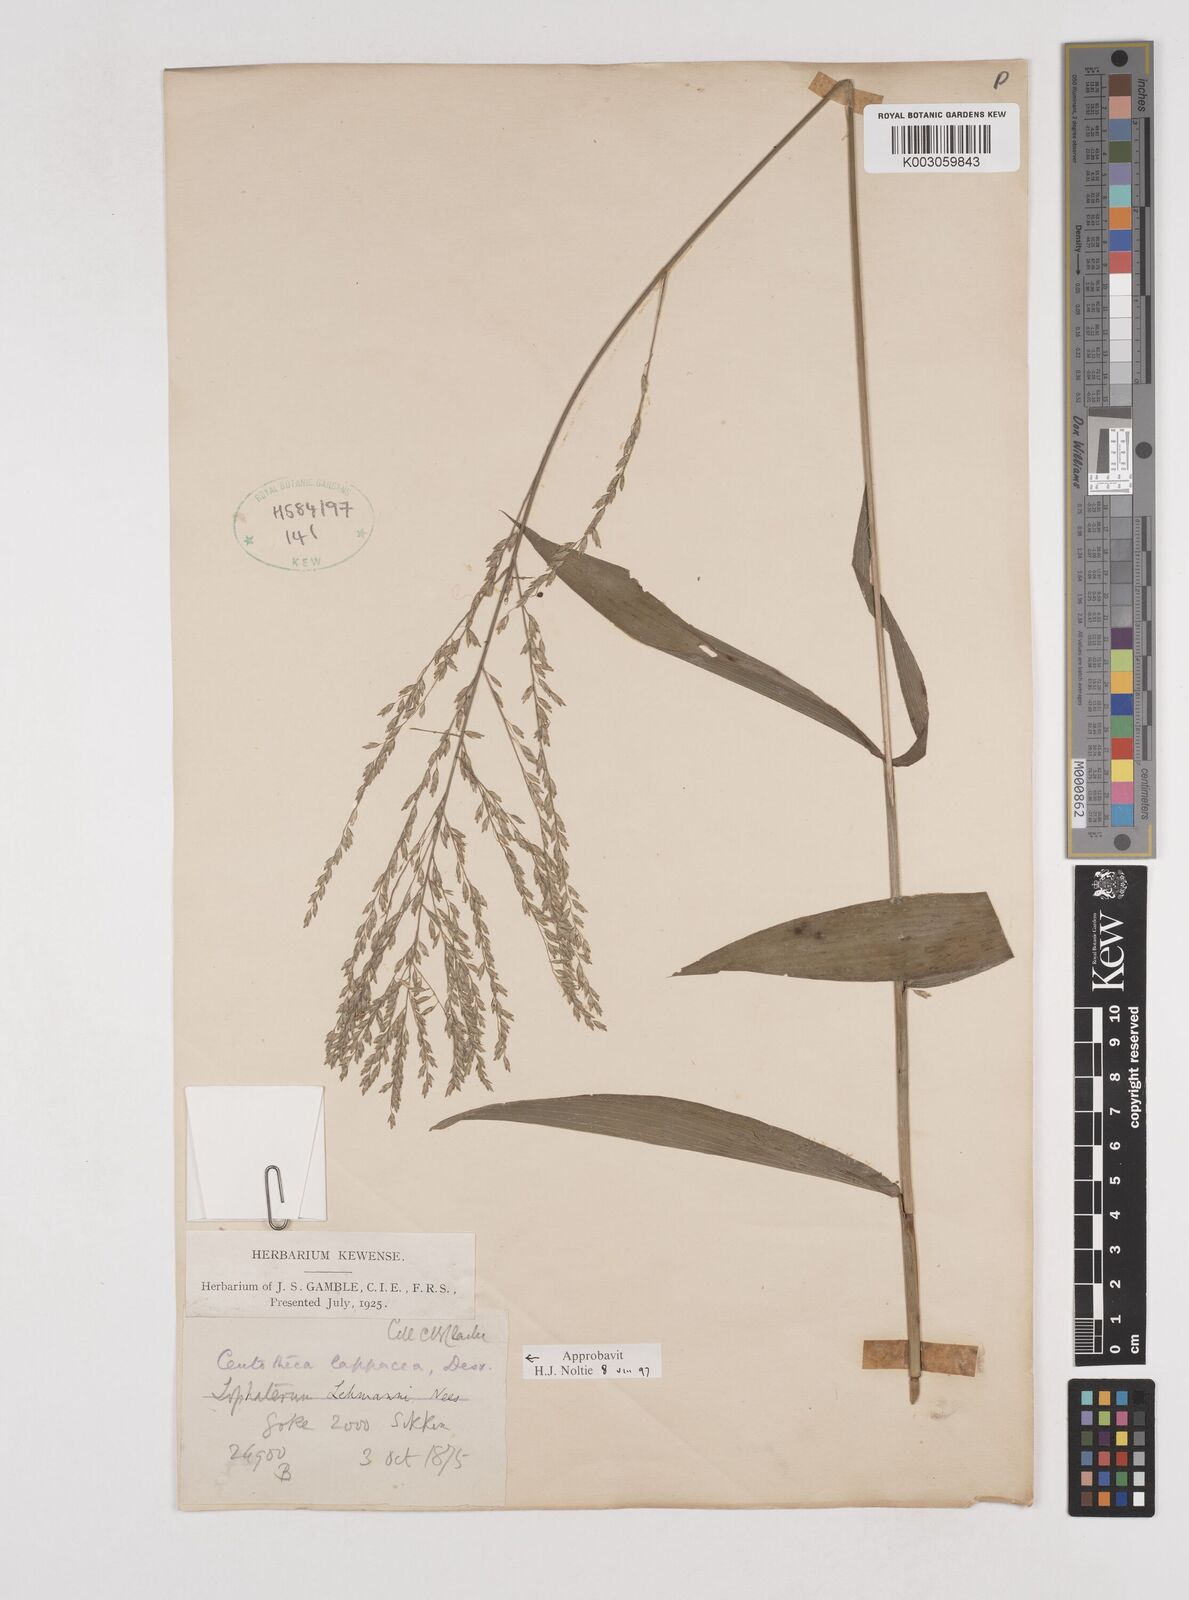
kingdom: Plantae
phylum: Tracheophyta
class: Liliopsida
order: Poales
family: Poaceae
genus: Centotheca
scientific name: Centotheca lappacea
